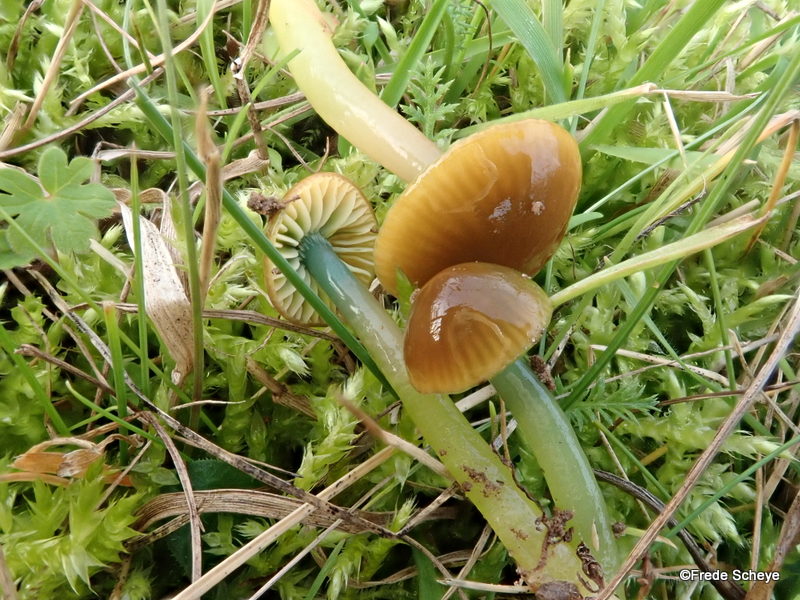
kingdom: Fungi
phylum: Basidiomycota
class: Agaricomycetes
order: Agaricales
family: Hygrophoraceae
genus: Gliophorus
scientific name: Gliophorus psittacinus
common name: papegøje-vokshat
